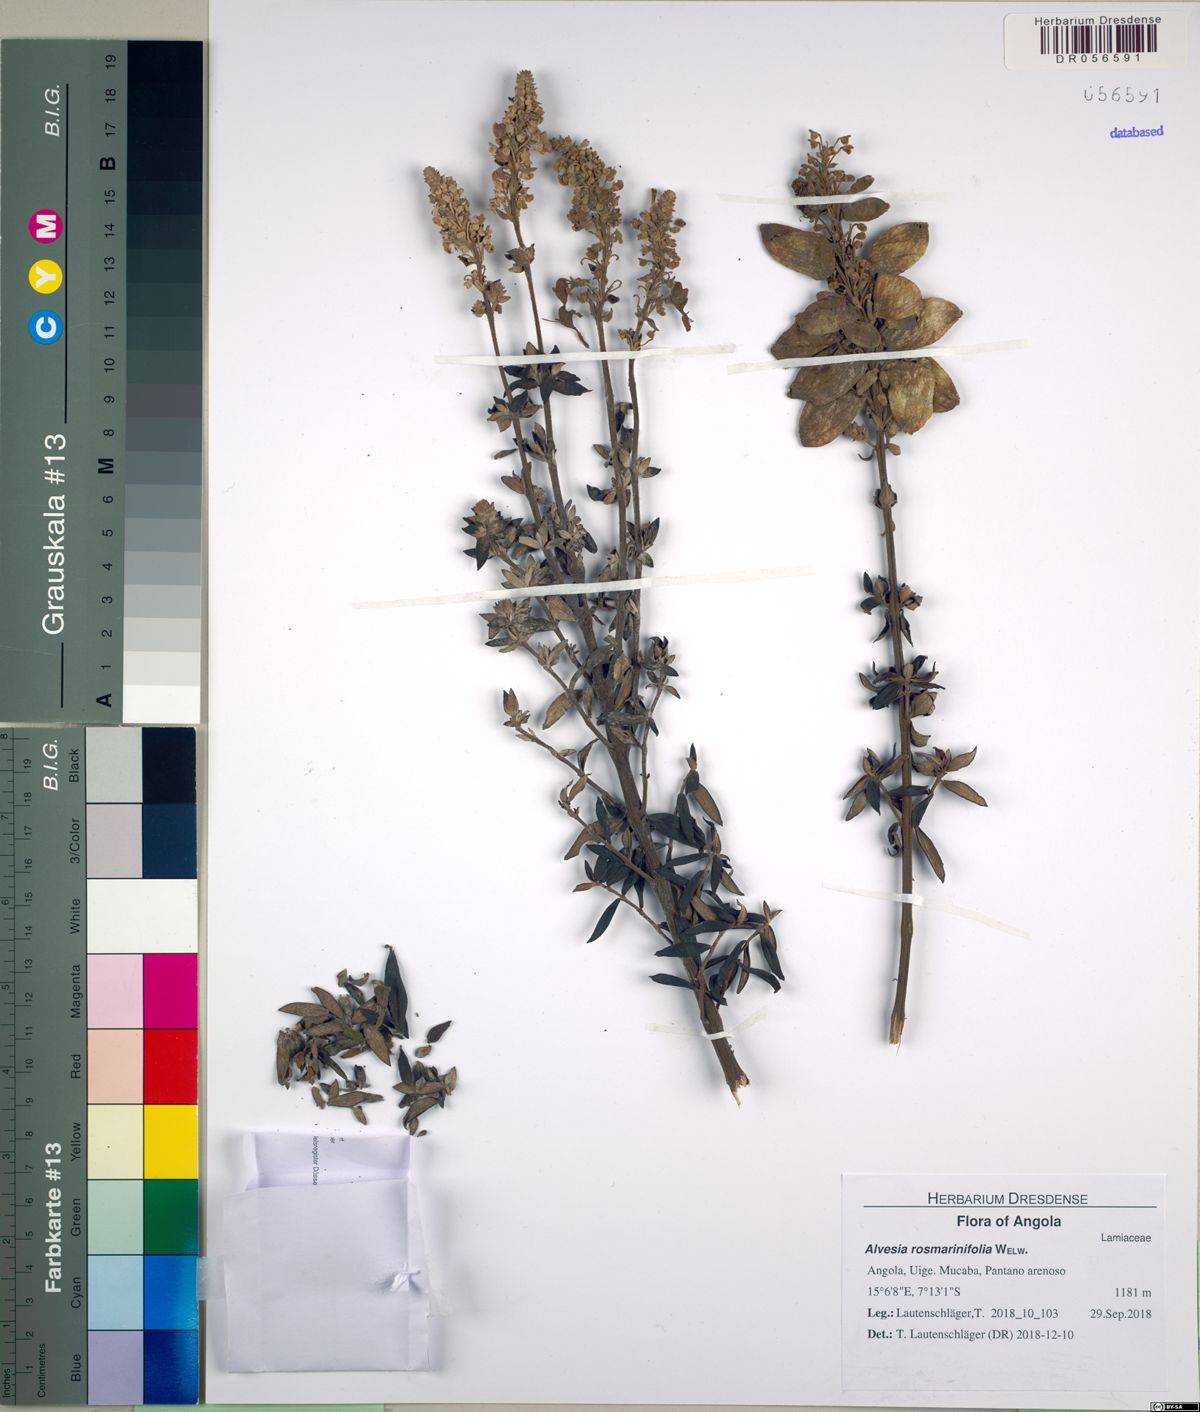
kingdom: Plantae
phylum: Tracheophyta
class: Magnoliopsida
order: Lamiales
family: Lamiaceae
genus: Alvesia
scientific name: Alvesia rosmarinifolia
